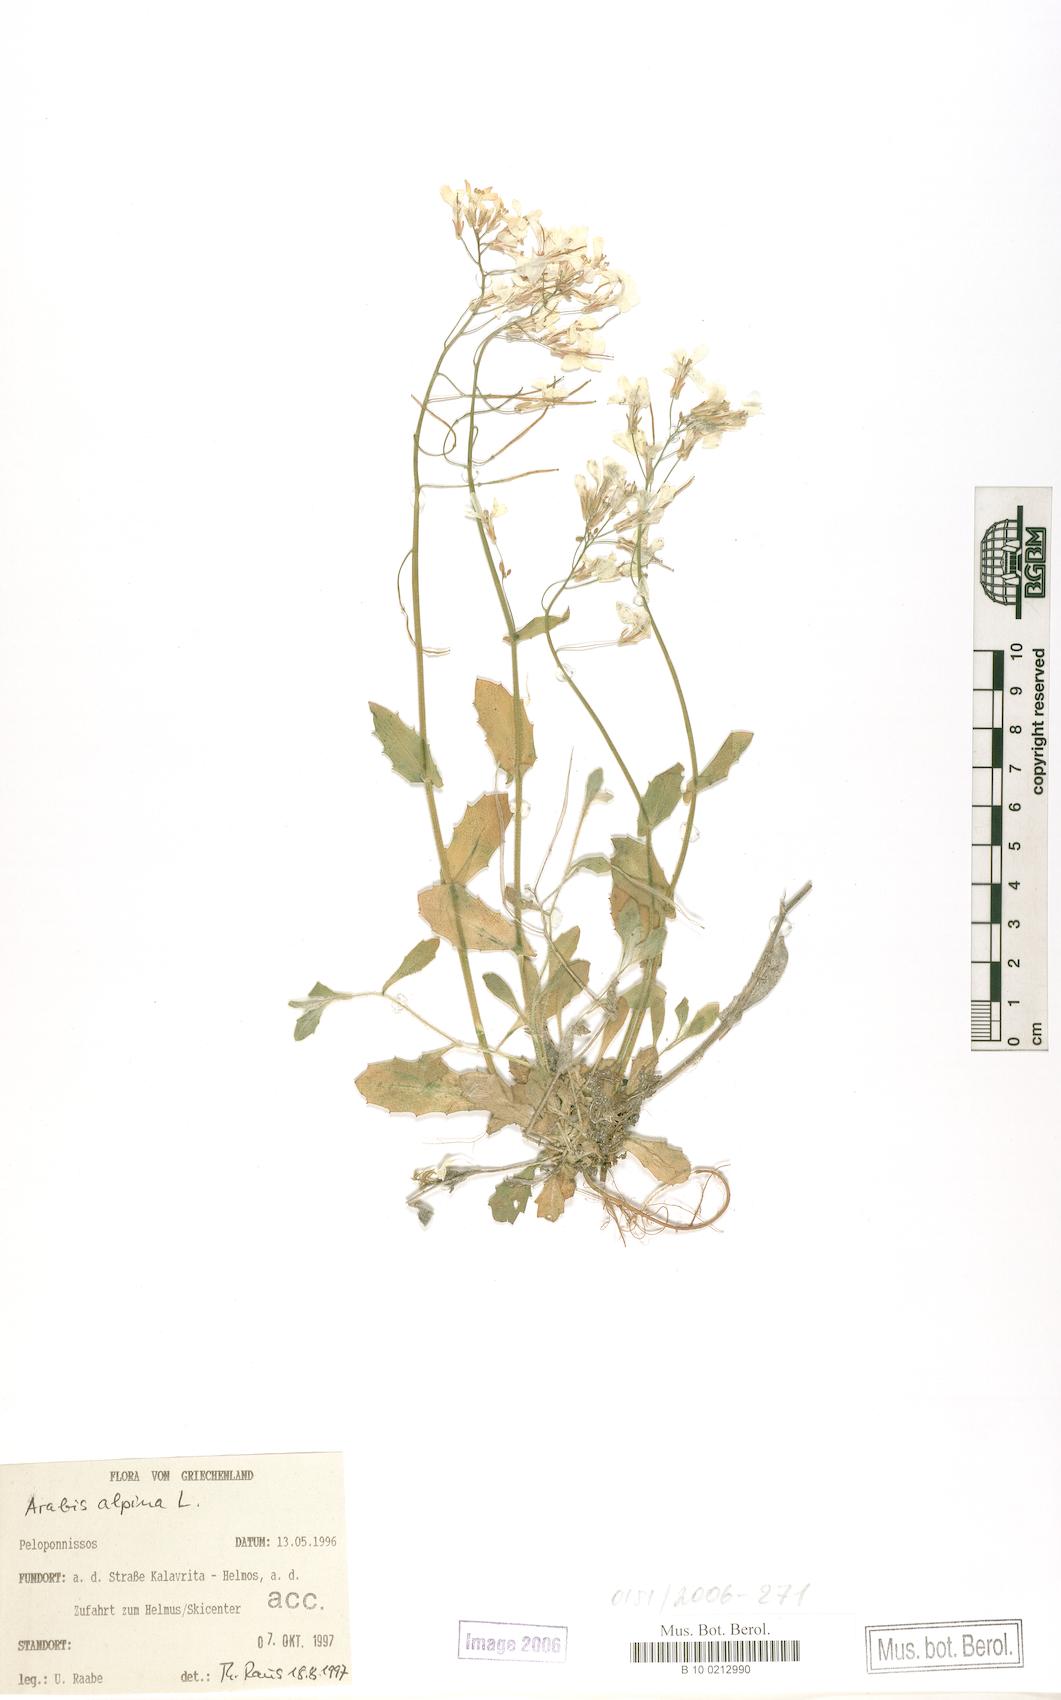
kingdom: Plantae
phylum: Tracheophyta
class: Magnoliopsida
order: Brassicales
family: Brassicaceae
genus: Arabis
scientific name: Arabis alpina
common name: Alpine rock-cress
